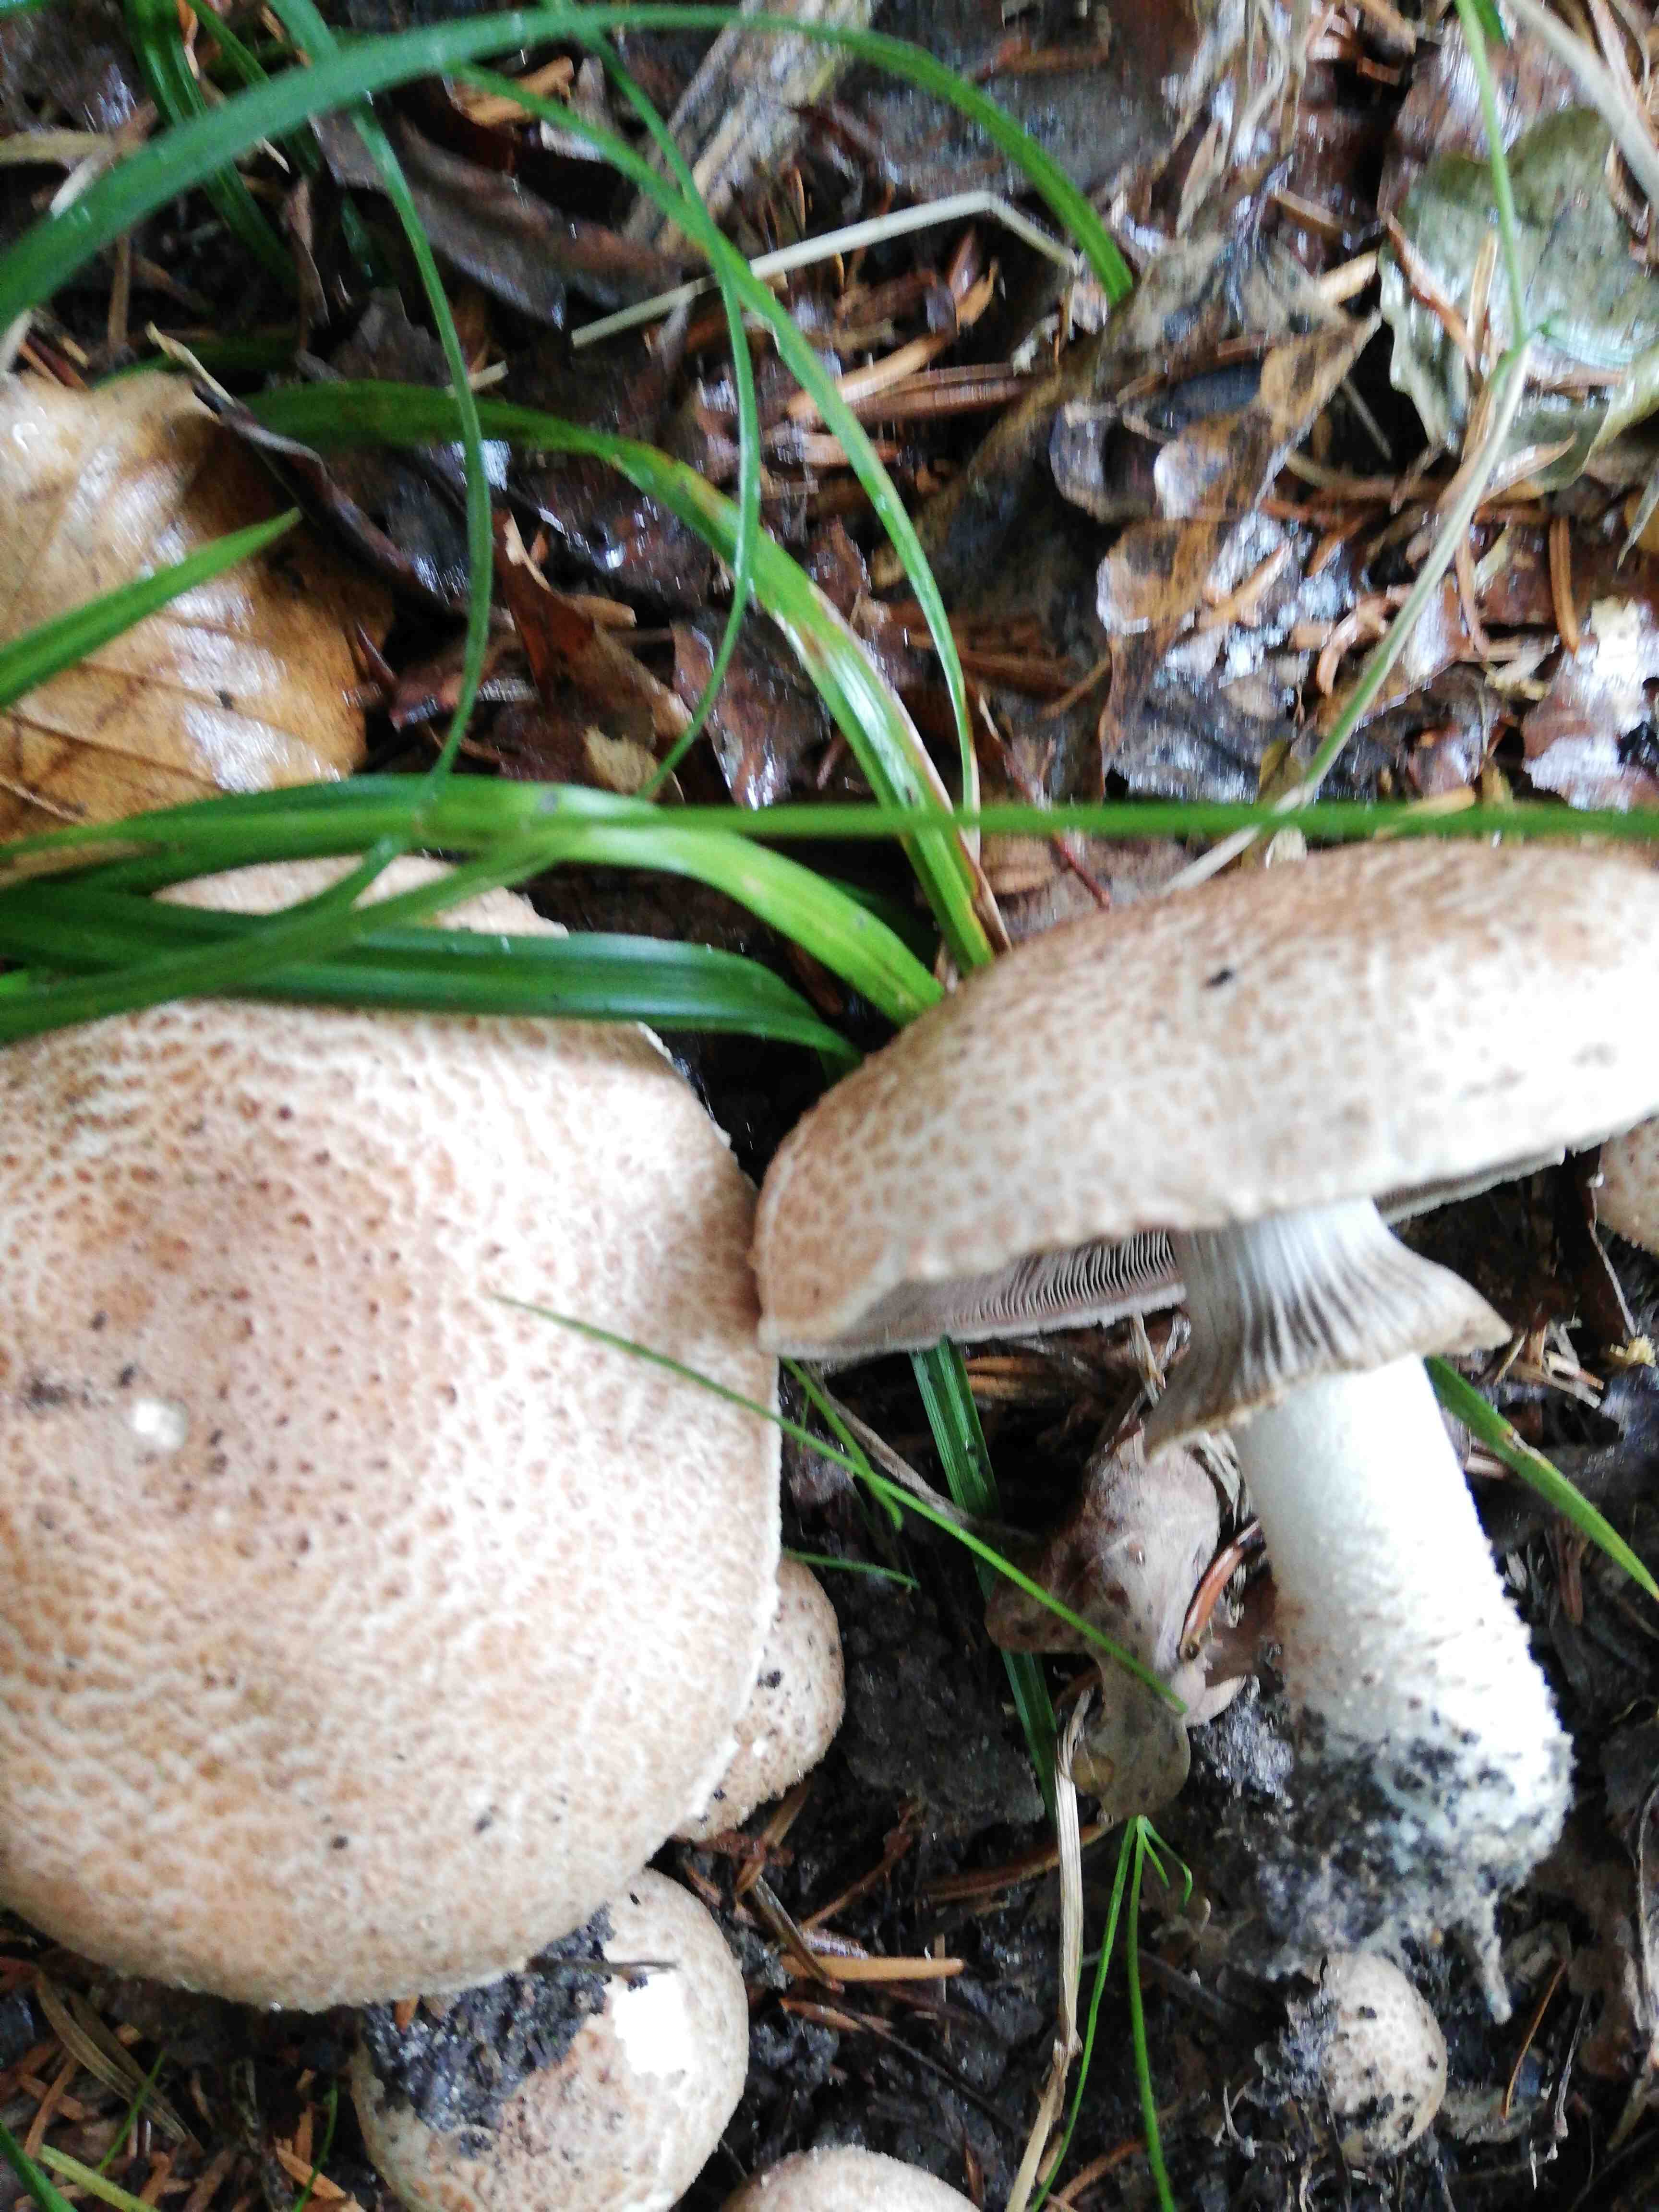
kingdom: Fungi
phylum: Basidiomycota
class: Agaricomycetes
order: Agaricales
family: Agaricaceae
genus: Agaricus
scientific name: Agaricus subfloccosus
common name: randskællet champignon
